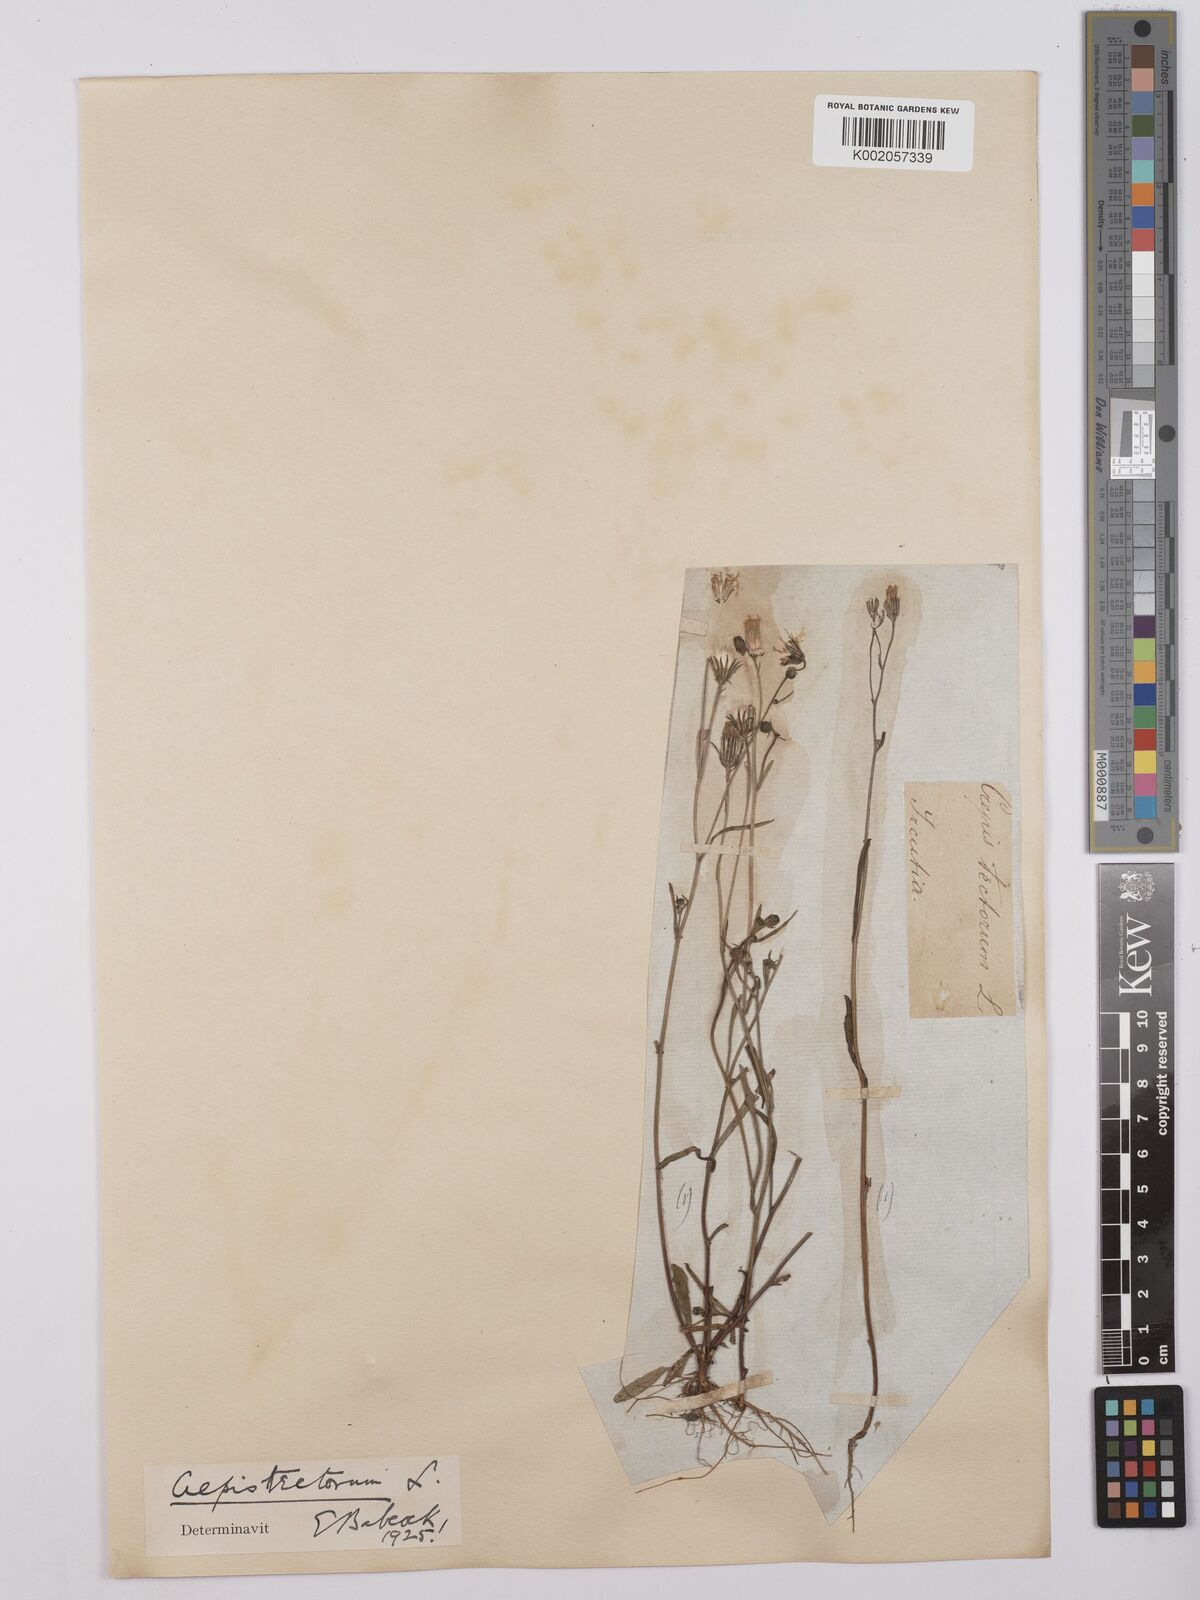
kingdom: Plantae
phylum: Tracheophyta
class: Magnoliopsida
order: Asterales
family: Asteraceae
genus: Crepis
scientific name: Crepis tectorum
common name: Narrow-leaved hawk's-beard
